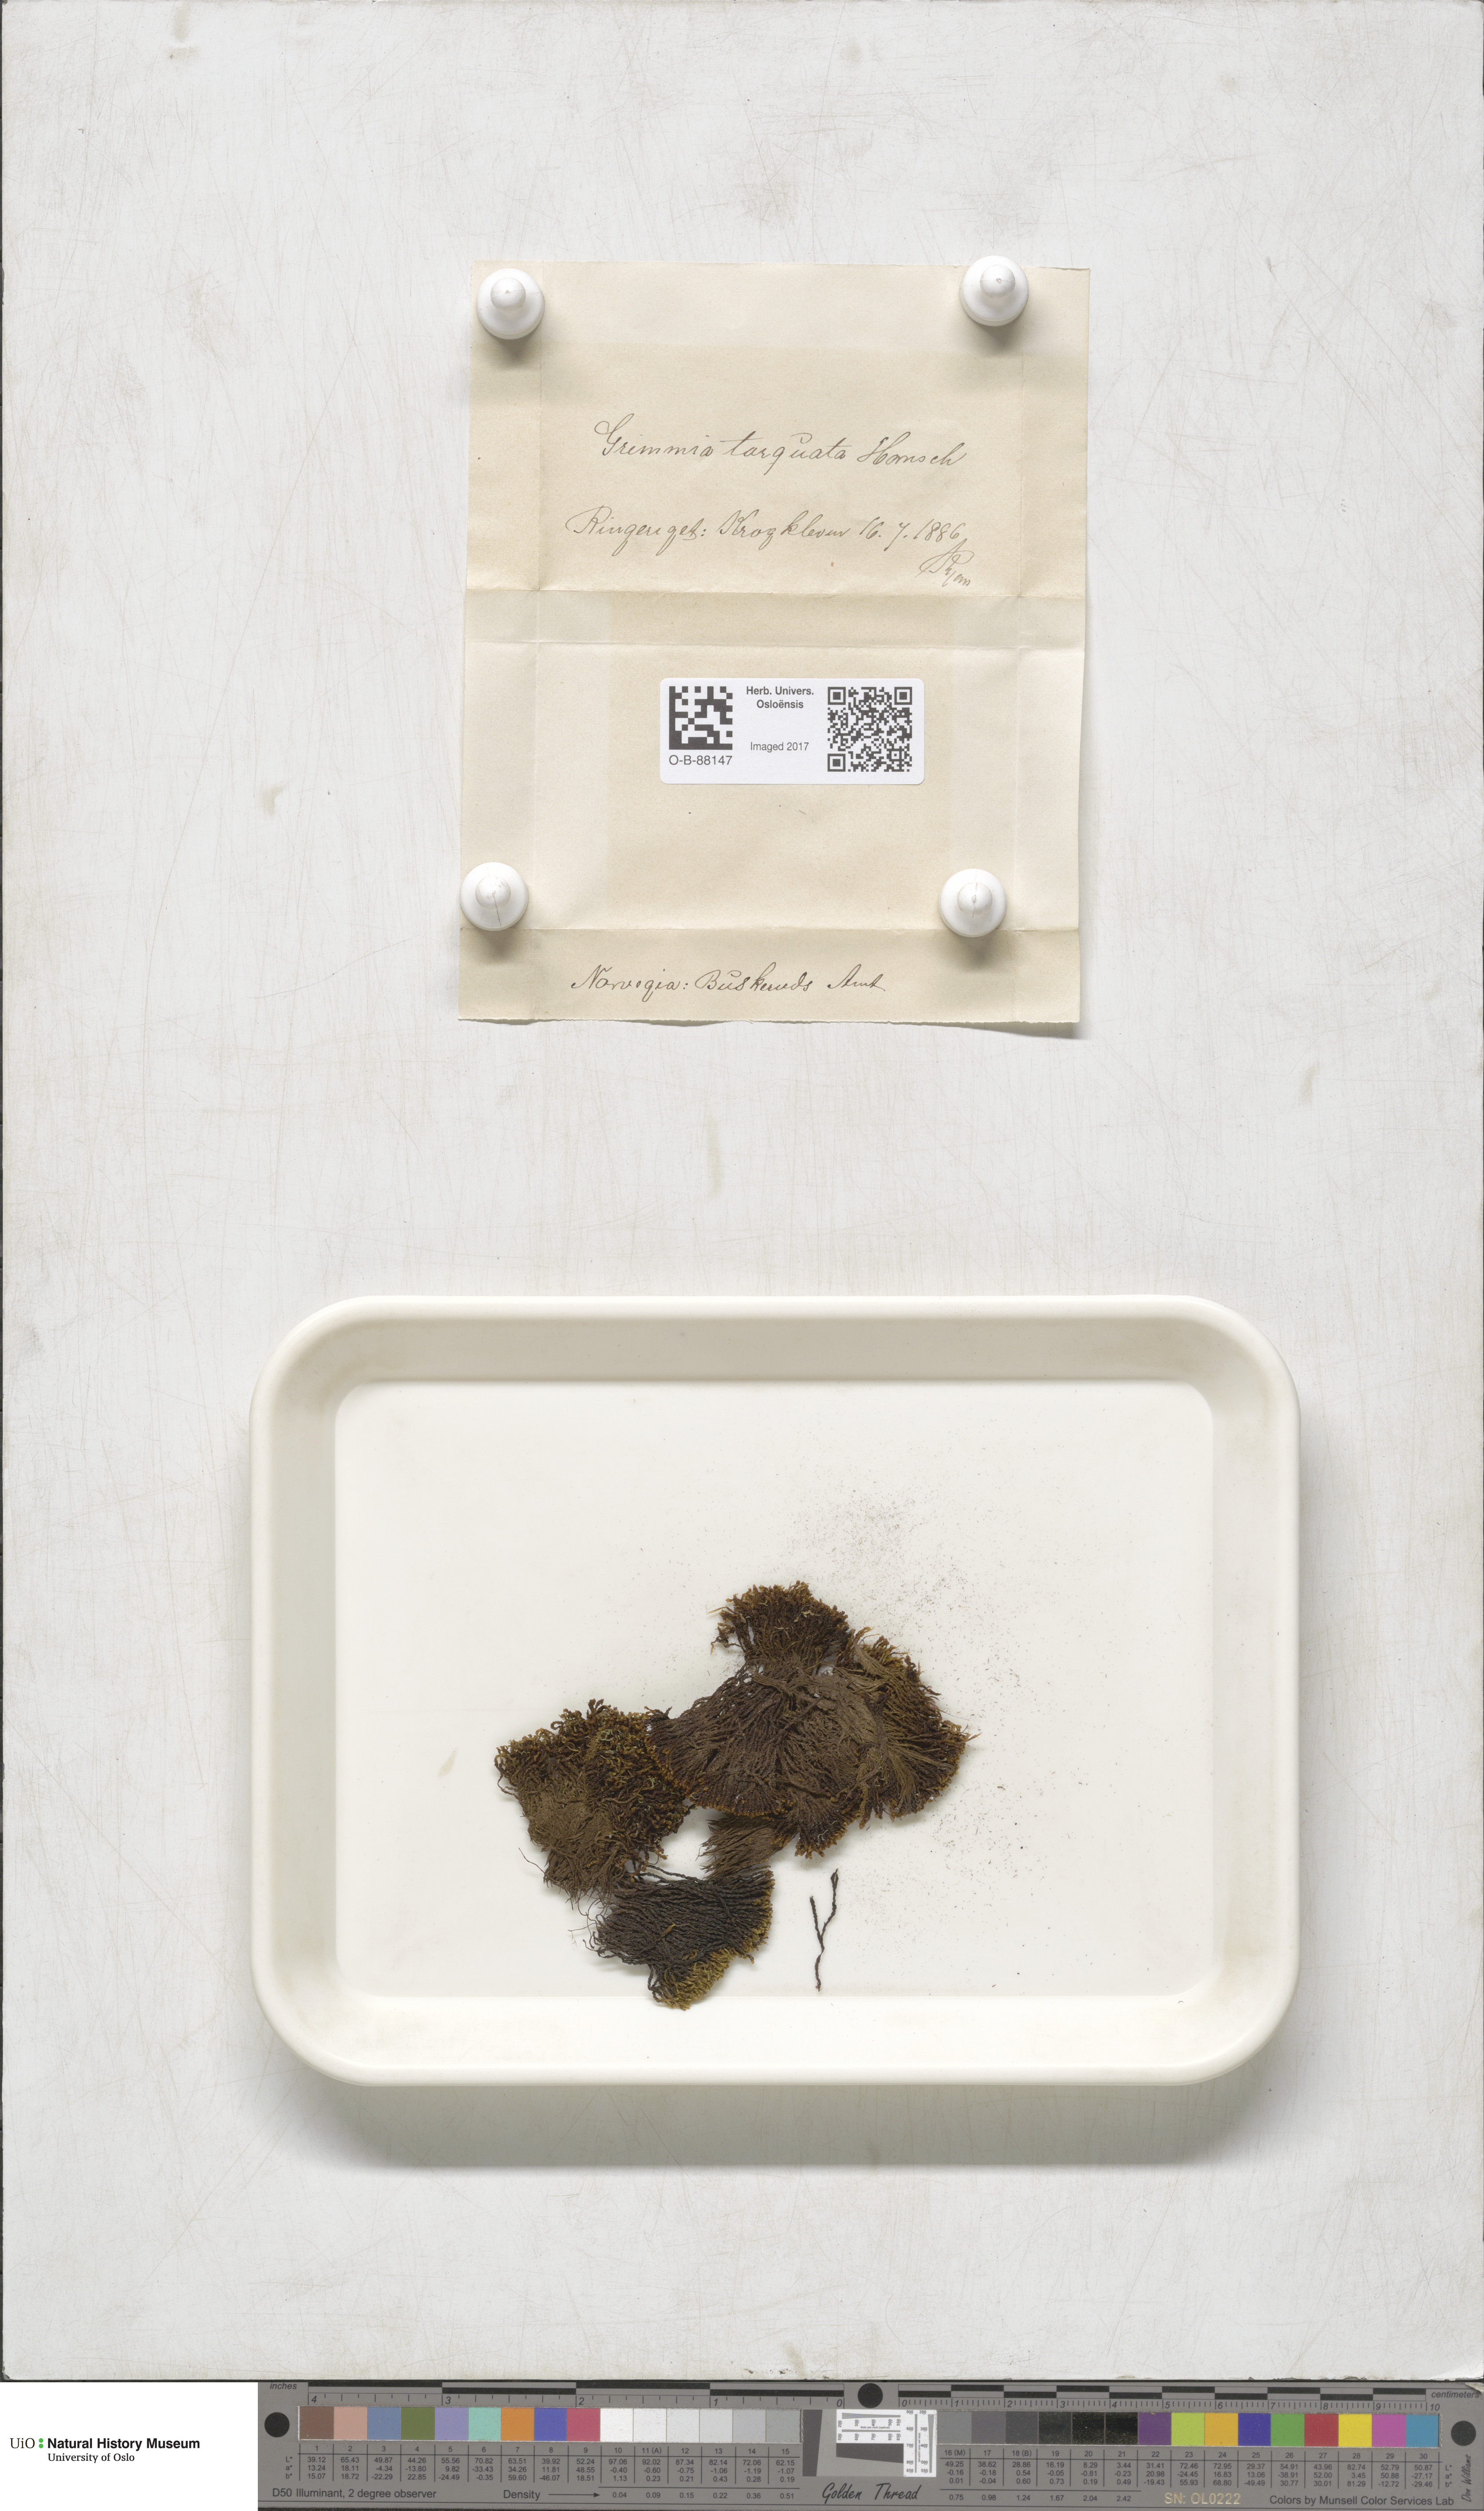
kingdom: Plantae
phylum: Bryophyta
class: Bryopsida
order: Grimmiales
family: Grimmiaceae
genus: Grimmia
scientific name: Grimmia torquata
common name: Twisted grimmia
